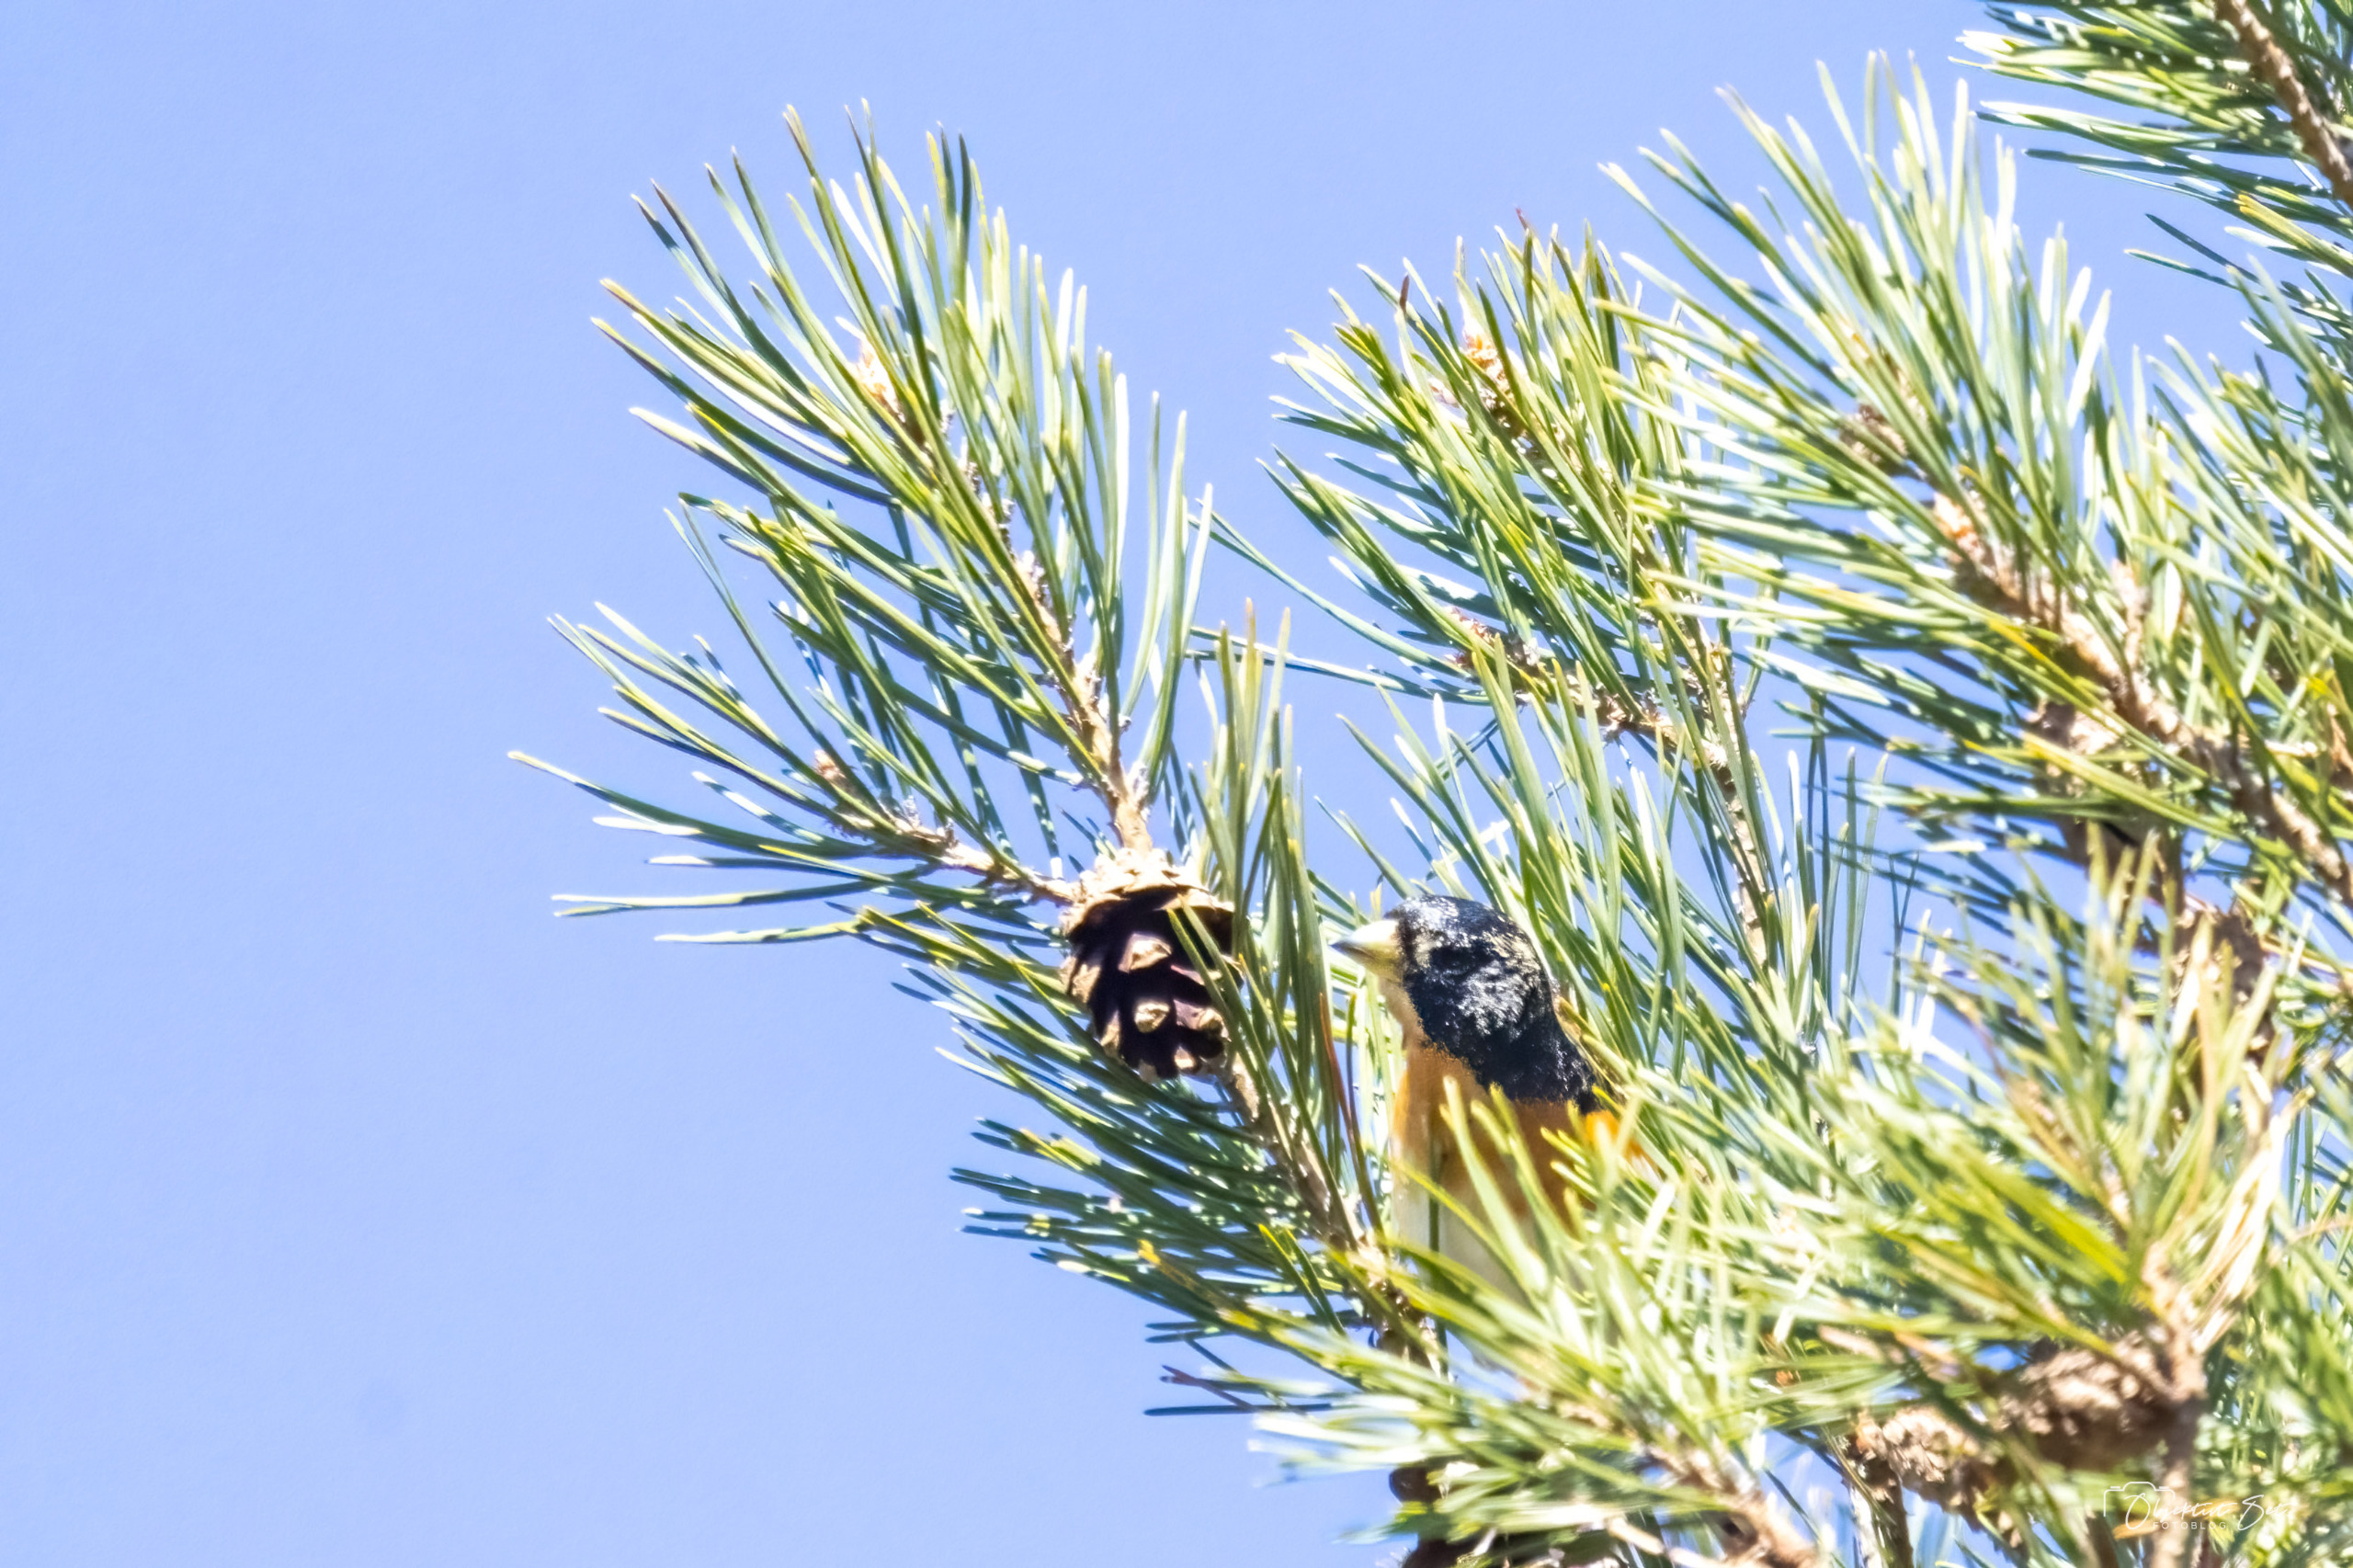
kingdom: Animalia
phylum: Chordata
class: Aves
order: Passeriformes
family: Fringillidae
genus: Fringilla
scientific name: Fringilla montifringilla
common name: Kvækerfinke
